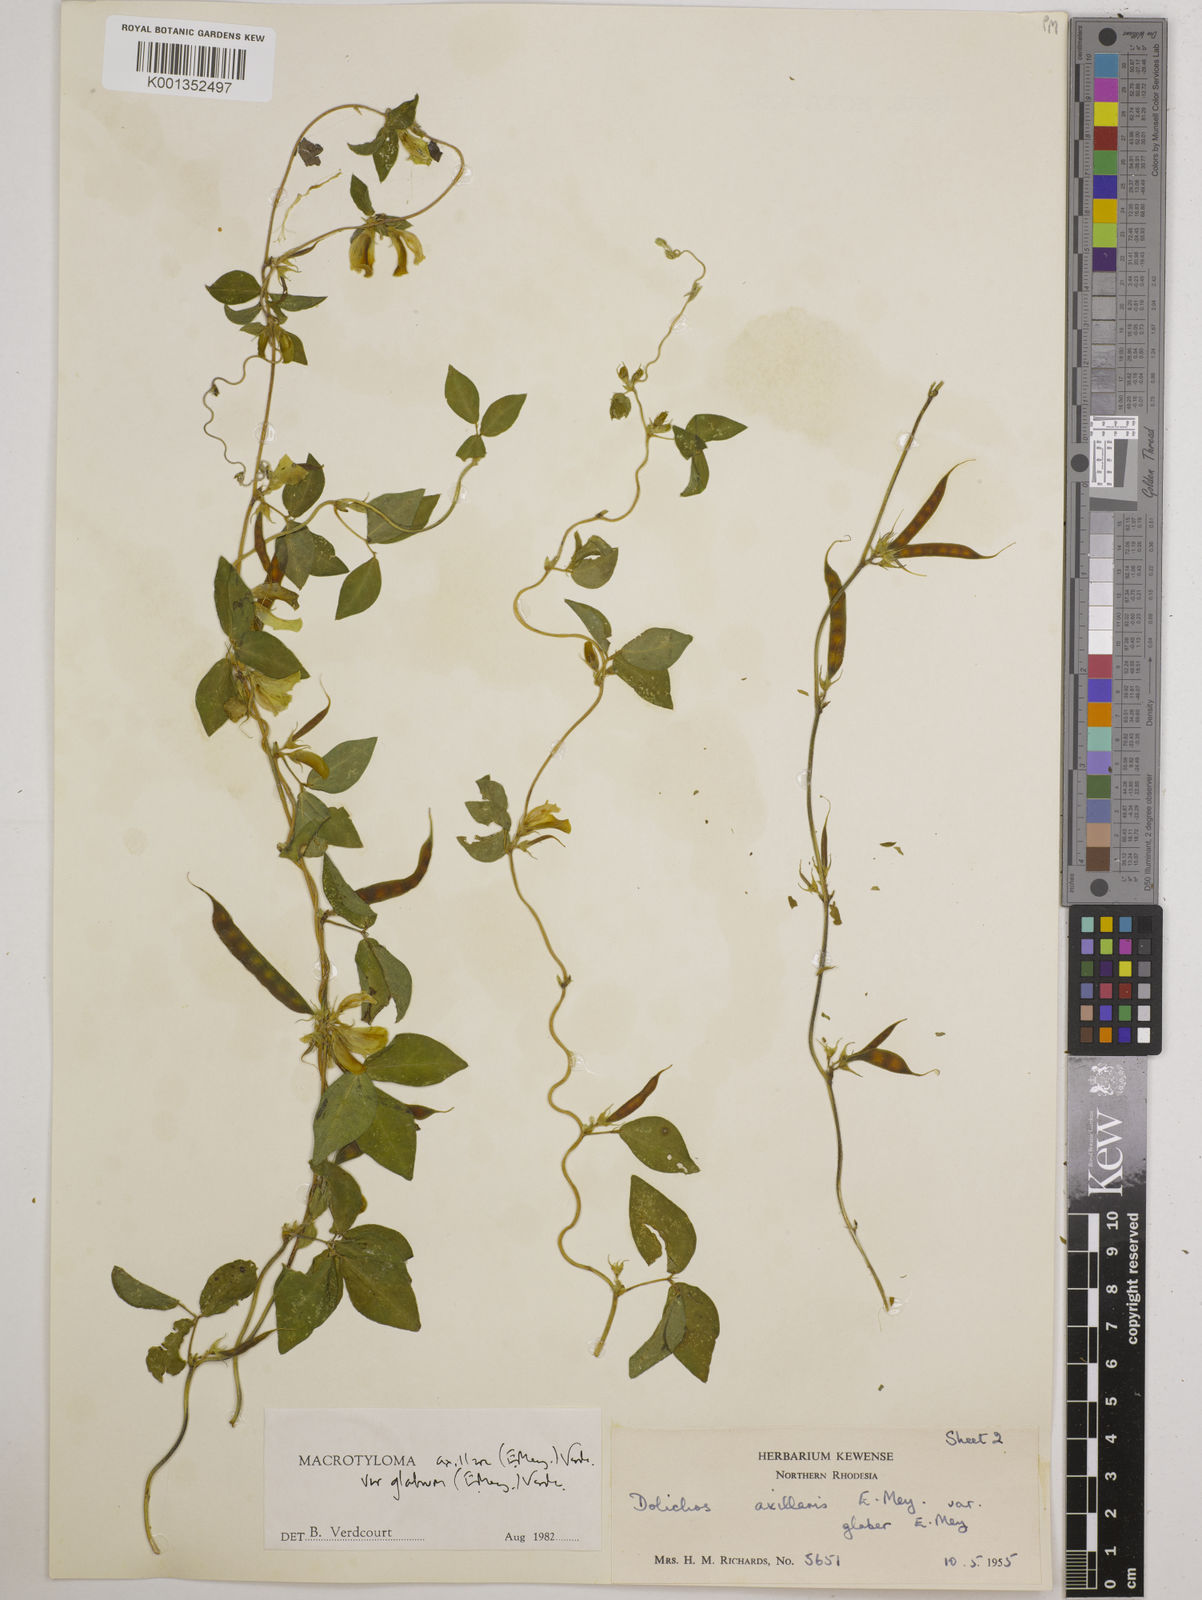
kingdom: Plantae
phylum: Tracheophyta
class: Magnoliopsida
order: Fabales
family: Fabaceae
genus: Macrotyloma
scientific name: Macrotyloma
